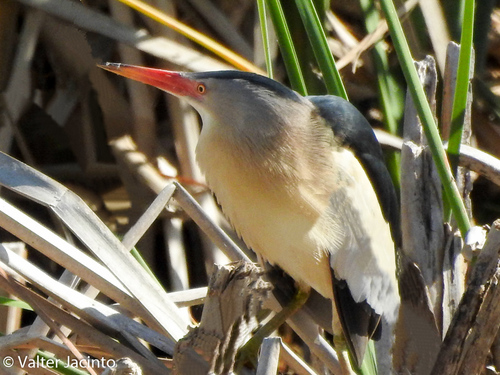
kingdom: Animalia
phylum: Chordata
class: Aves
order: Pelecaniformes
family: Ardeidae
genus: Ixobrychus
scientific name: Ixobrychus minutus
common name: Little bittern
